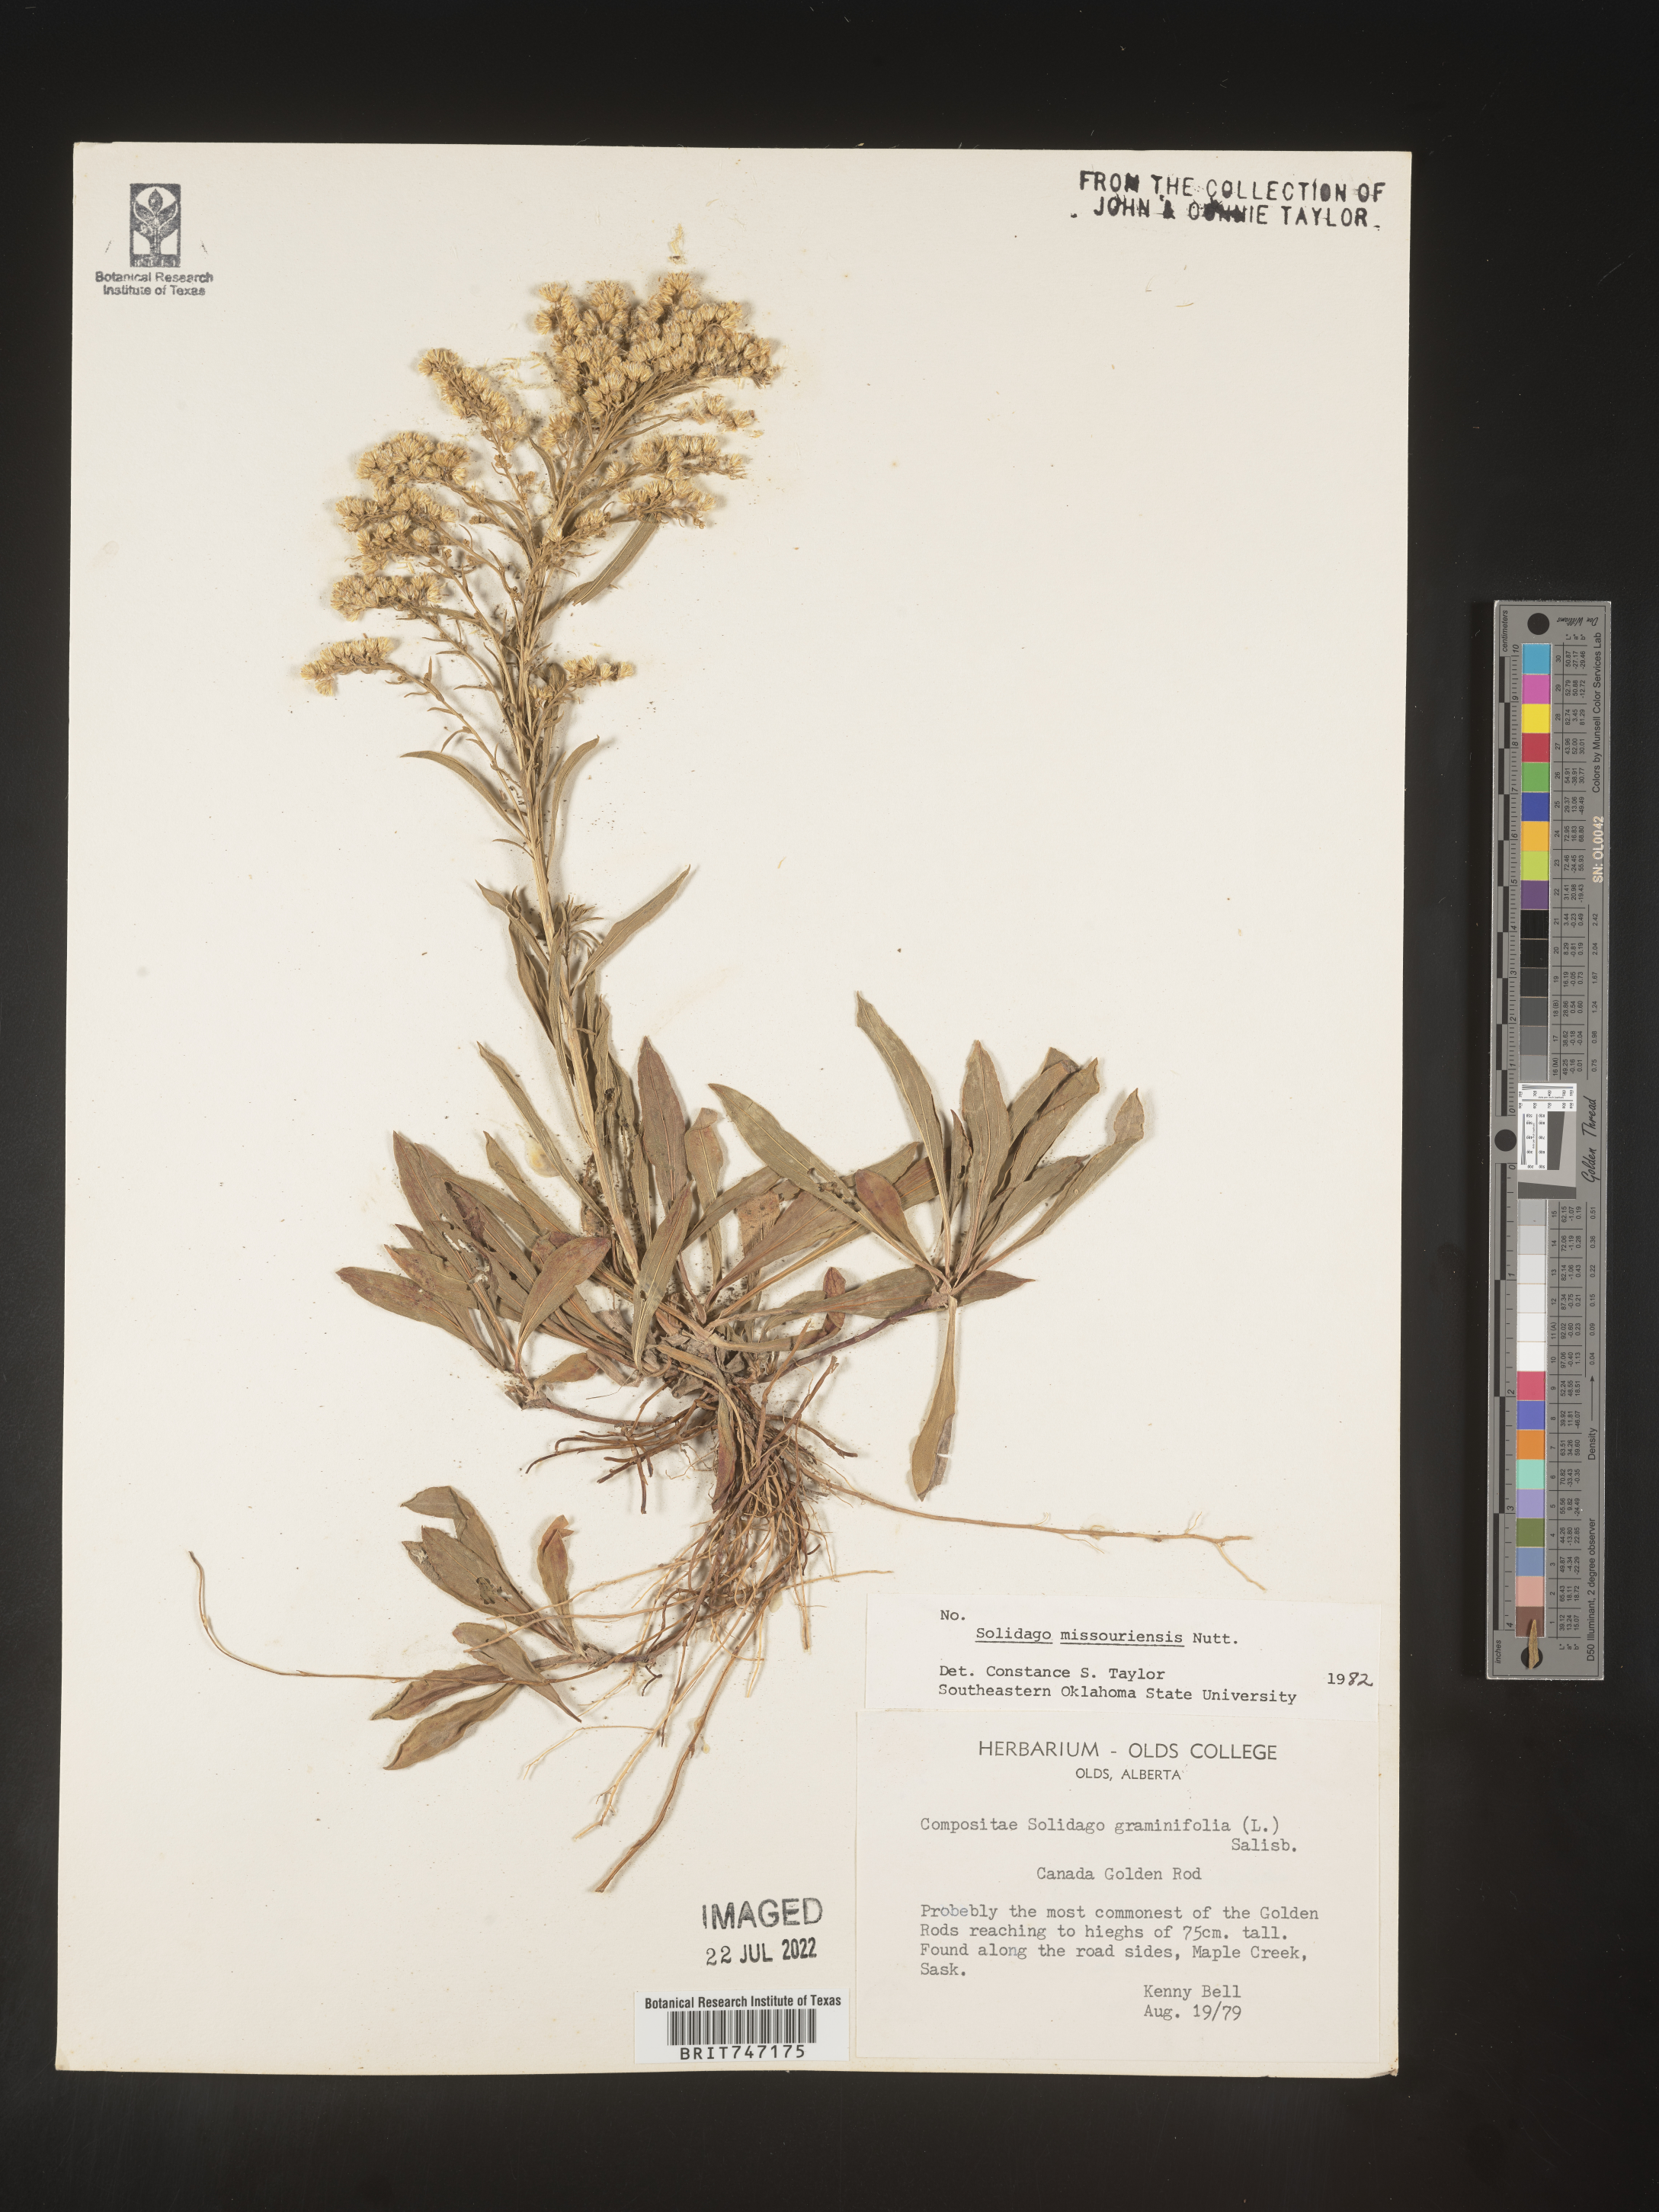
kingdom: Plantae
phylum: Tracheophyta
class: Magnoliopsida
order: Asterales
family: Asteraceae
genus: Solidago
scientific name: Solidago missouriensis
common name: Prairie goldenrod
